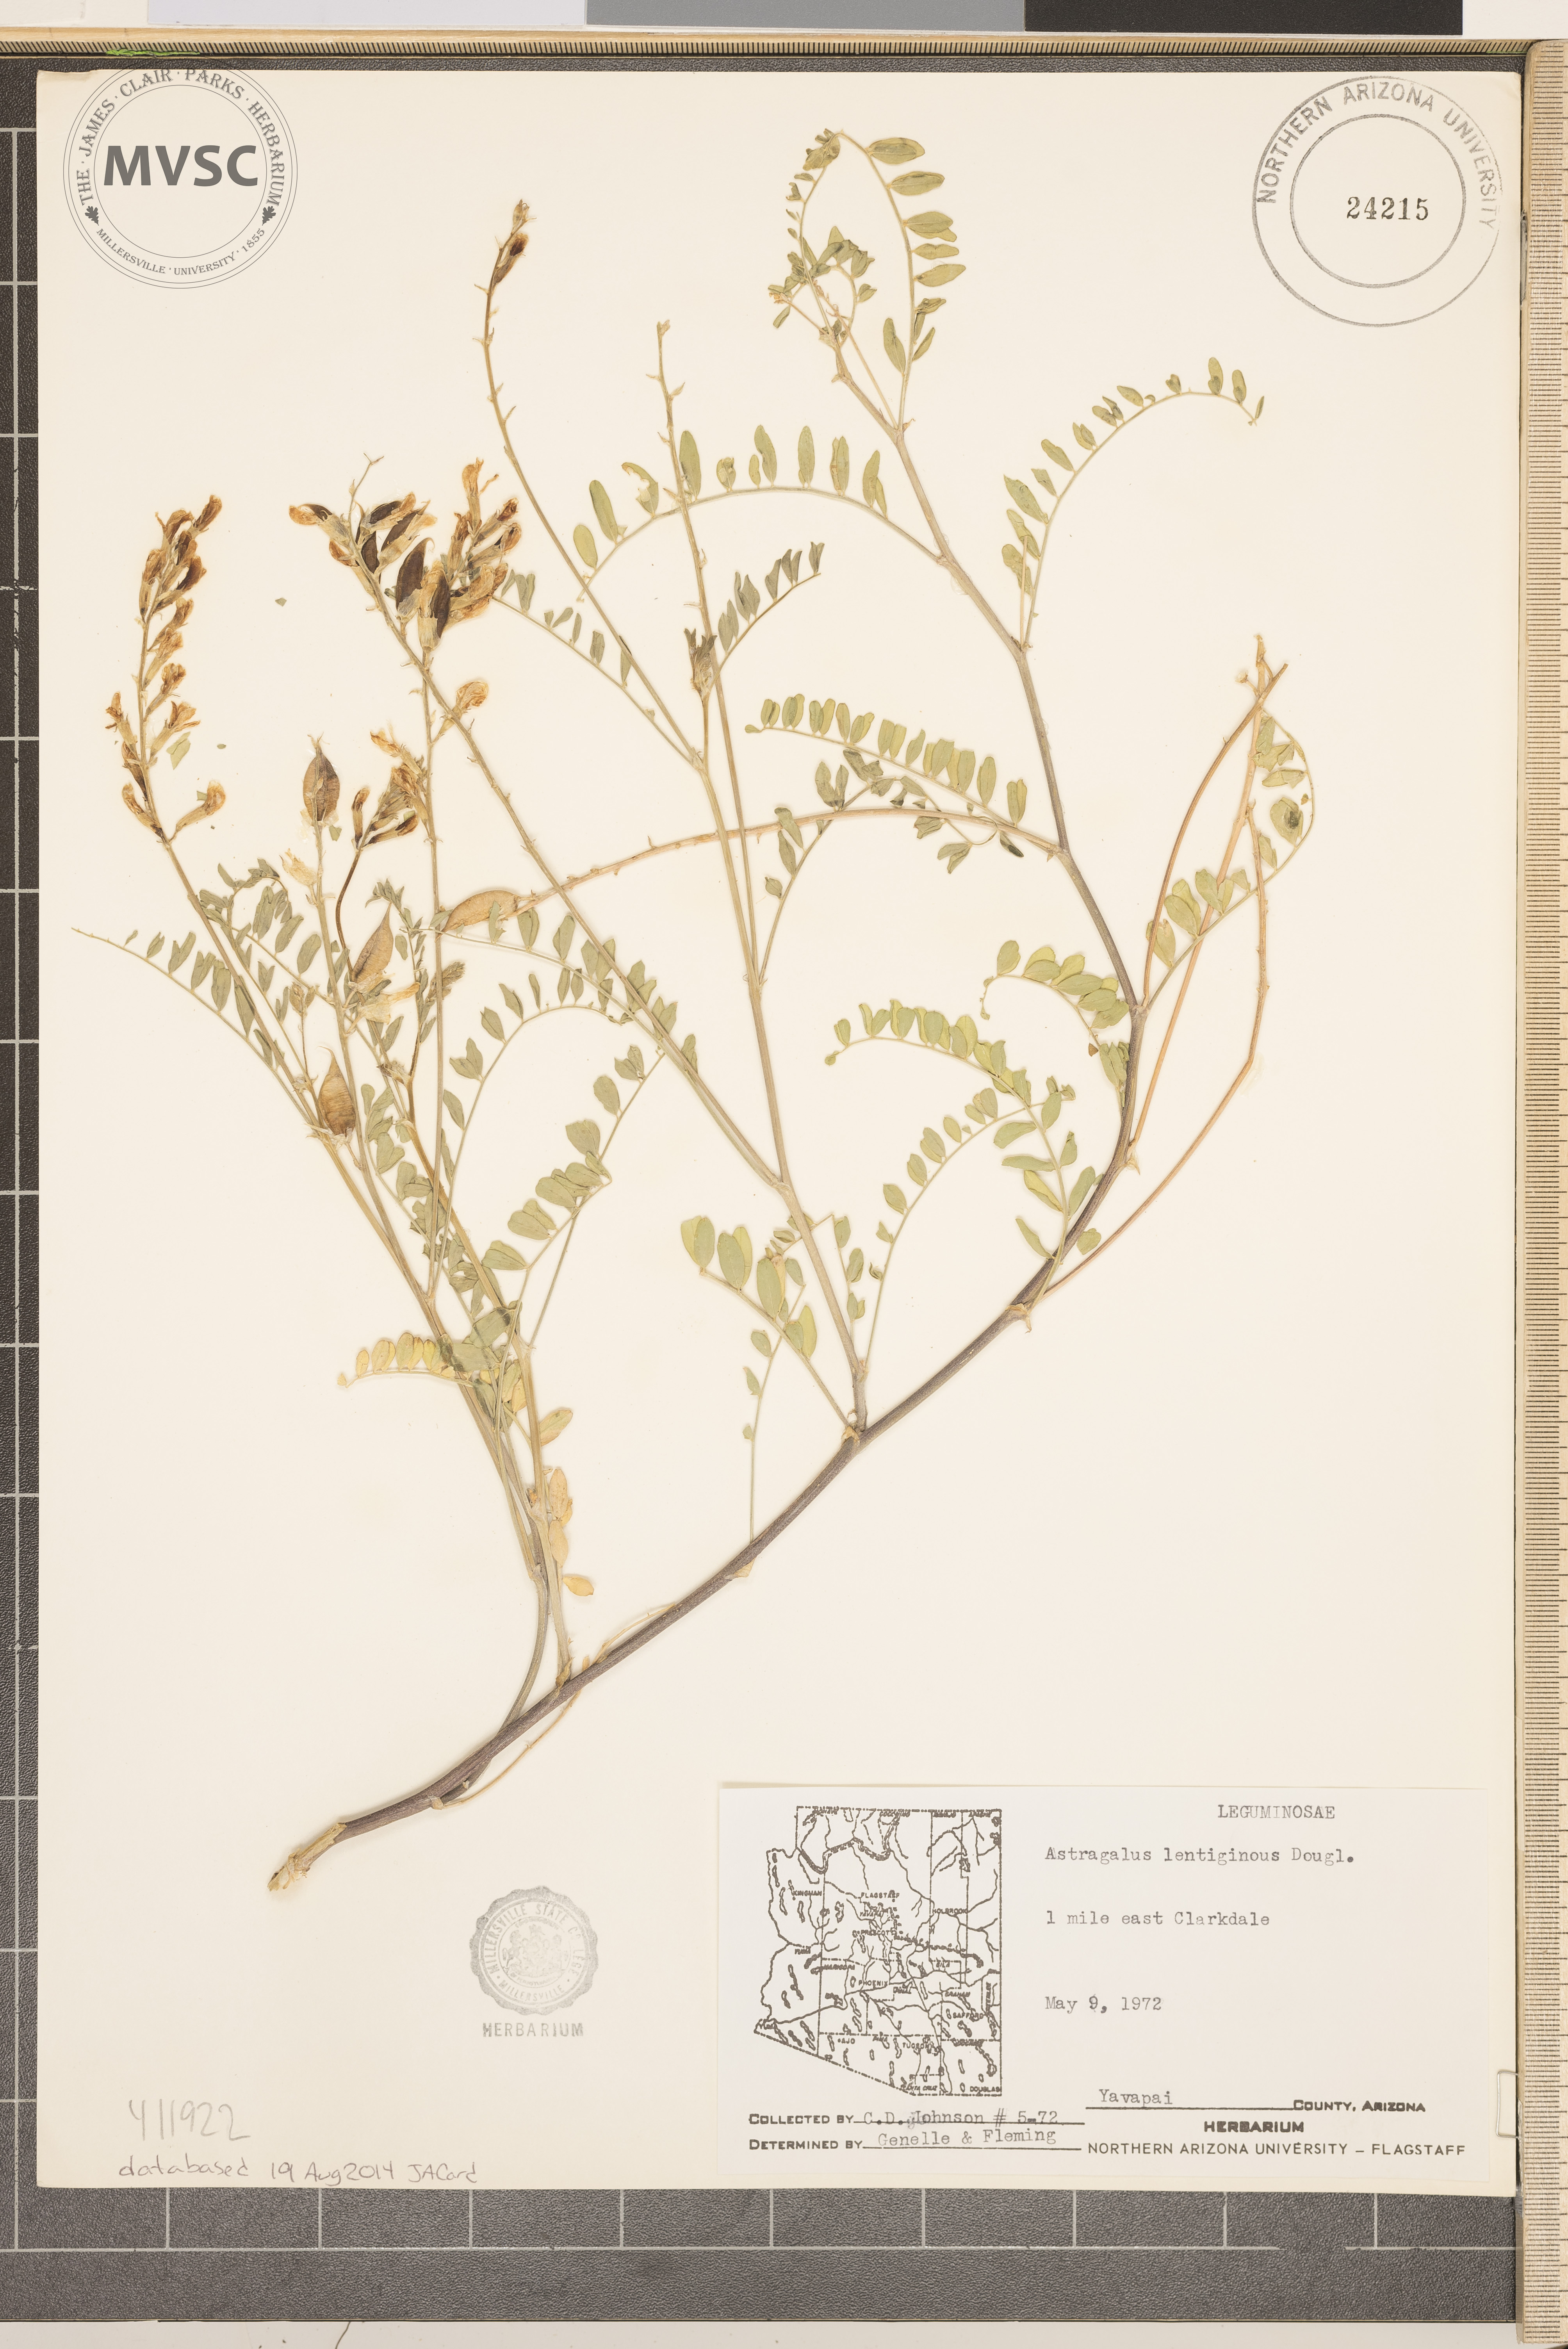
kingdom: Plantae
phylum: Tracheophyta
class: Magnoliopsida
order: Fabales
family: Fabaceae
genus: Astragalus
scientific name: Astragalus lentiginosus
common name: Freckled milkvetch
